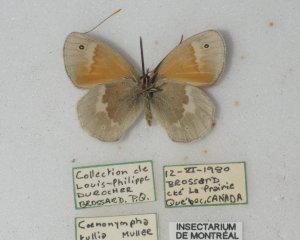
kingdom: Animalia
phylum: Arthropoda
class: Insecta
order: Lepidoptera
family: Nymphalidae
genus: Coenonympha
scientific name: Coenonympha tullia
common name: Large Heath
